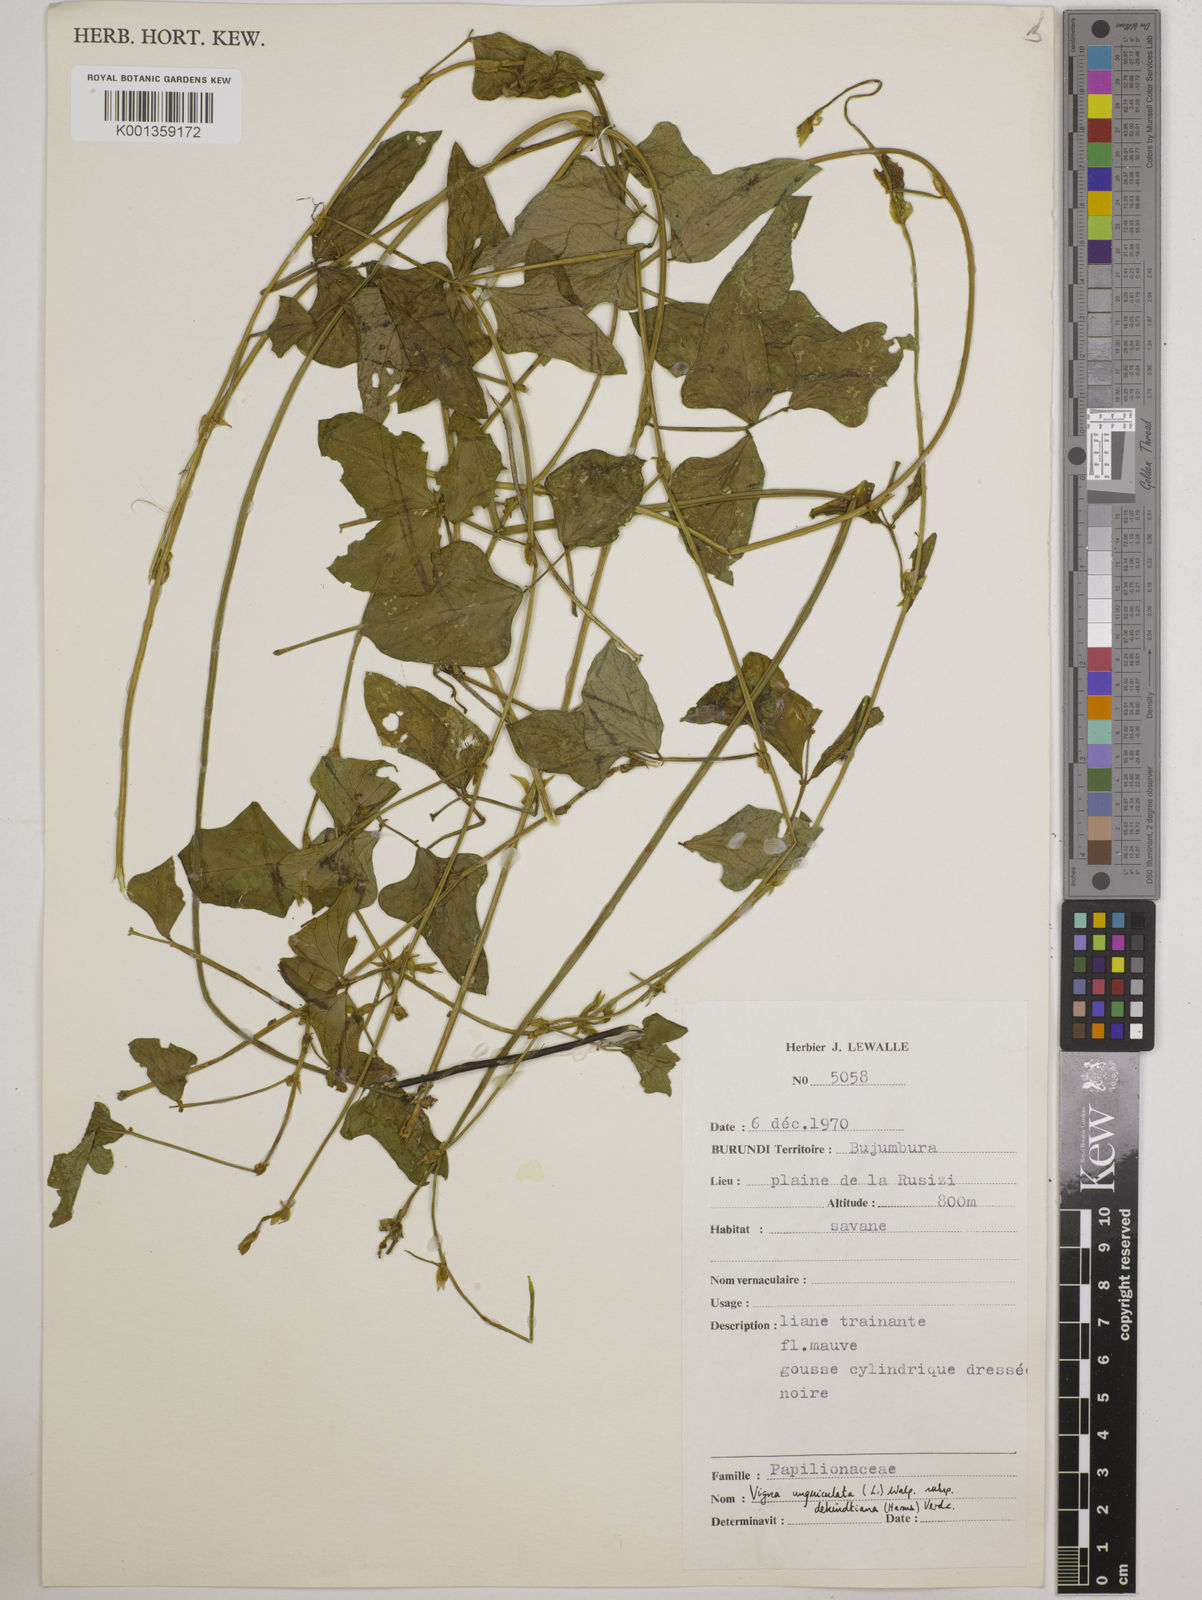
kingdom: Plantae
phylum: Tracheophyta
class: Magnoliopsida
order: Fabales
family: Fabaceae
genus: Vigna
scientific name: Vigna
